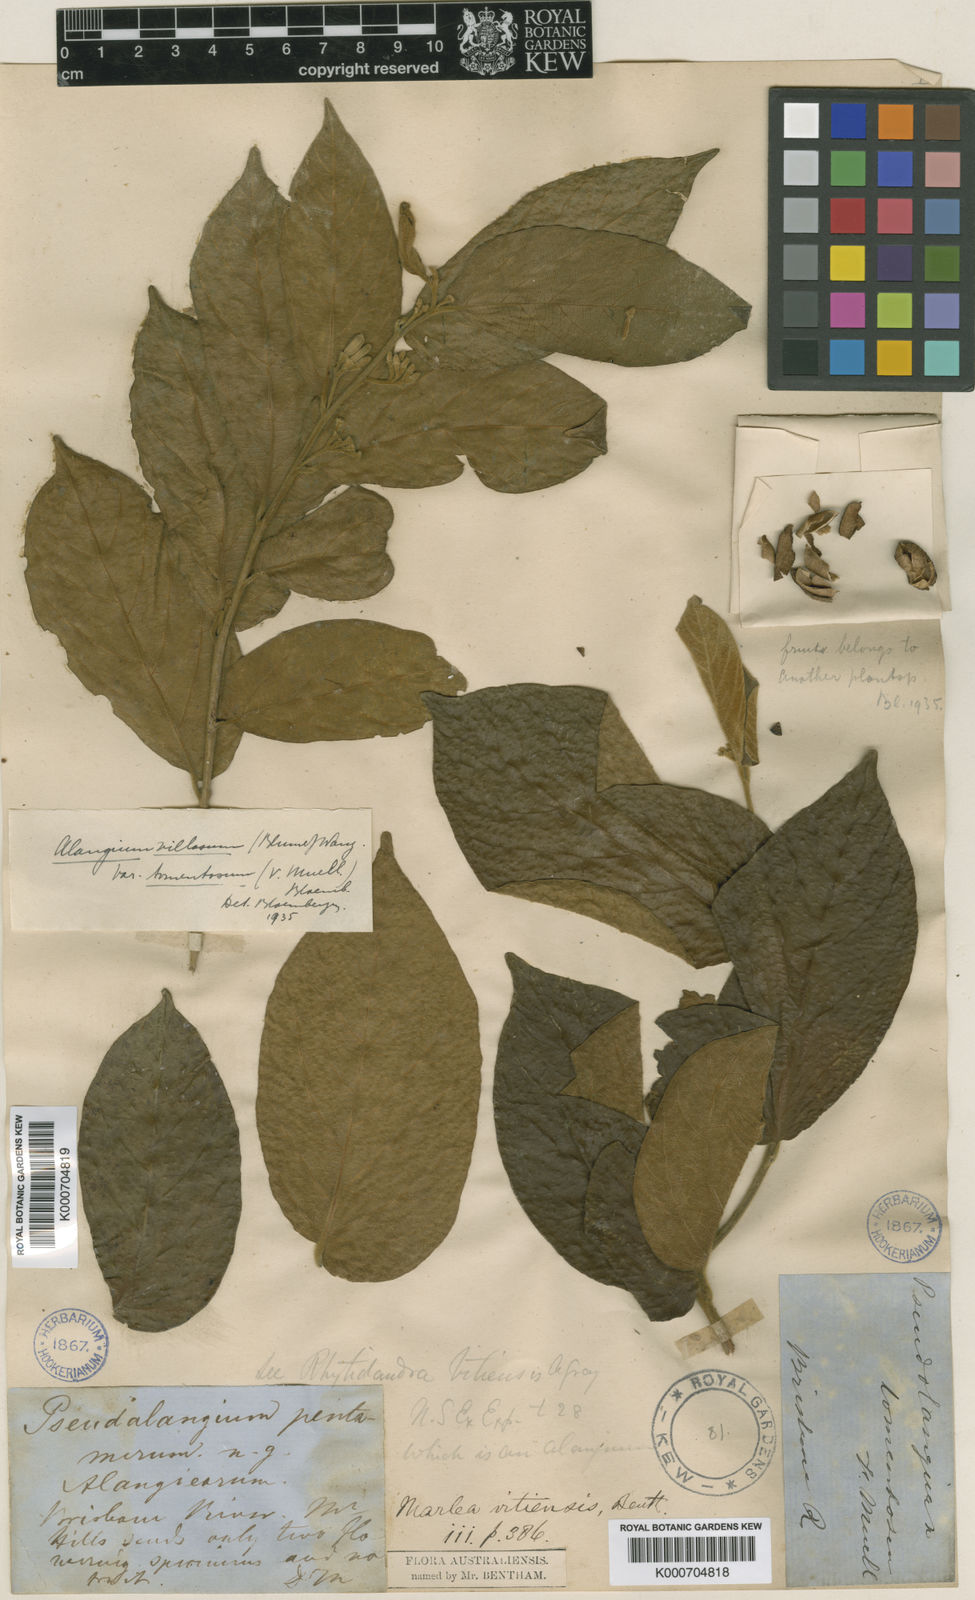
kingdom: Plantae
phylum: Tracheophyta
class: Magnoliopsida
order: Cornales
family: Cornaceae
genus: Alangium
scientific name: Alangium polyosmoides
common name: Black muskheart
